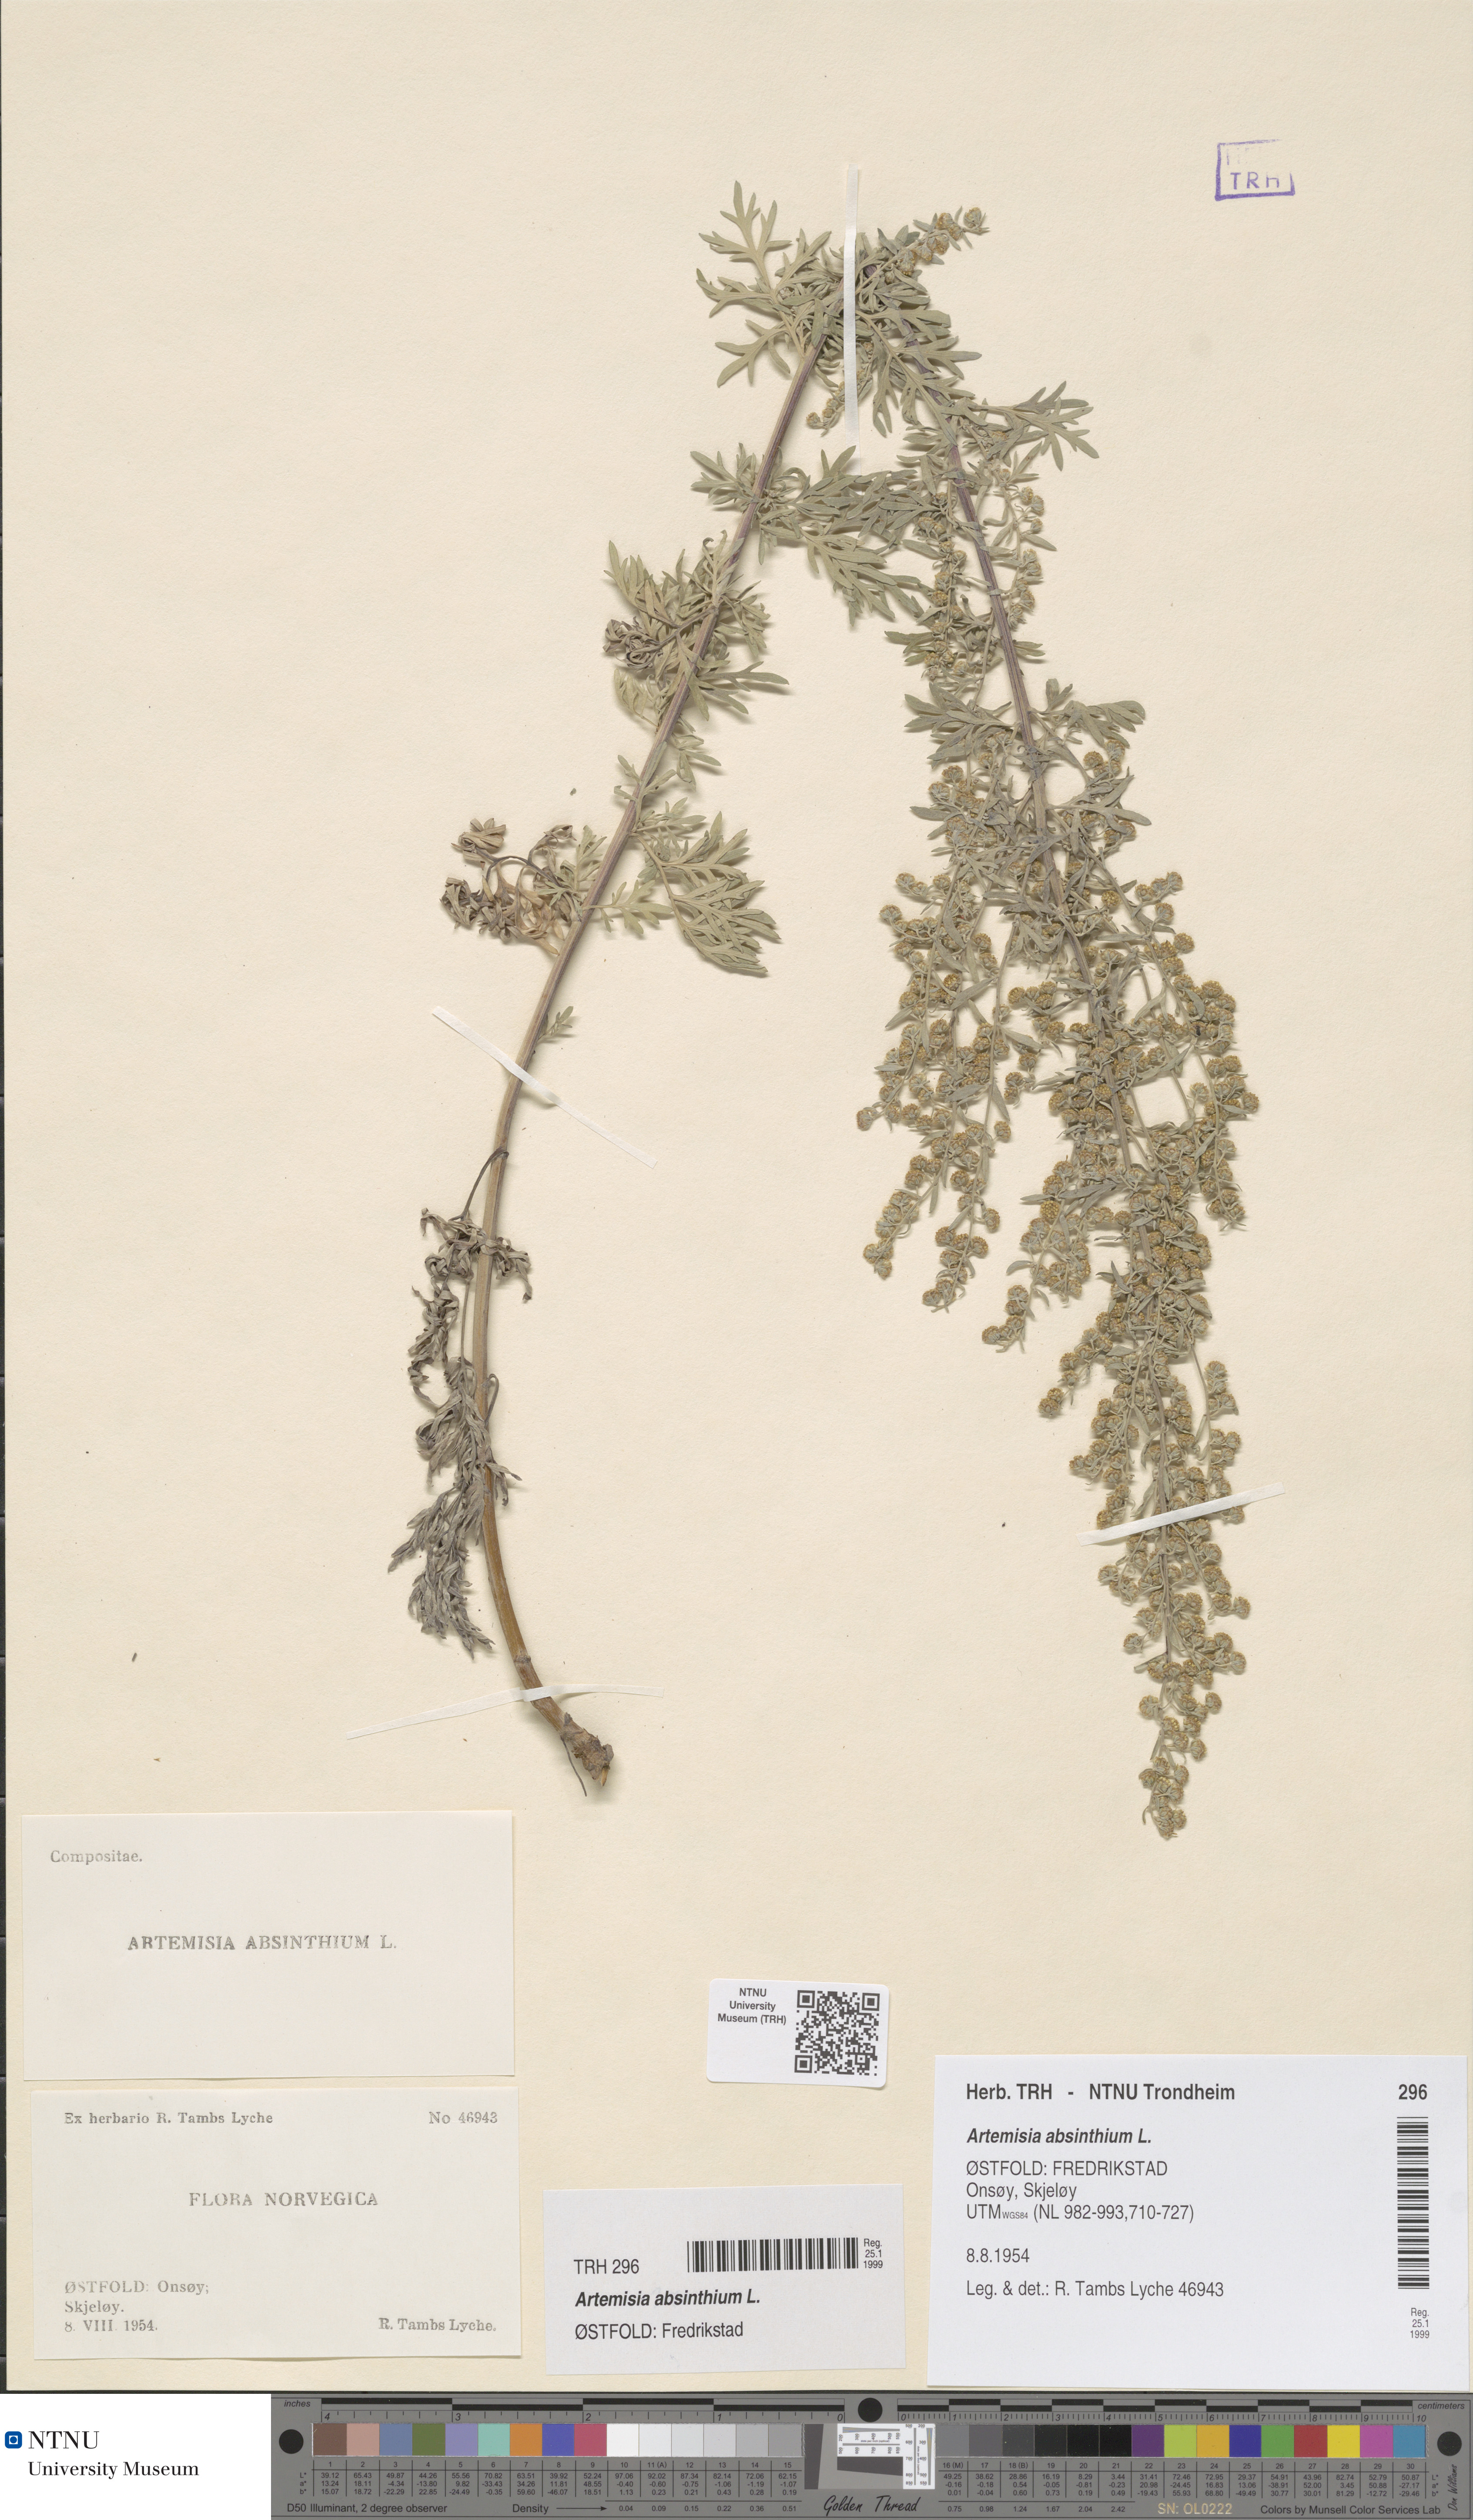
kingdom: Plantae
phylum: Tracheophyta
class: Magnoliopsida
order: Asterales
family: Asteraceae
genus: Artemisia
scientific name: Artemisia absinthium
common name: Wormwood
